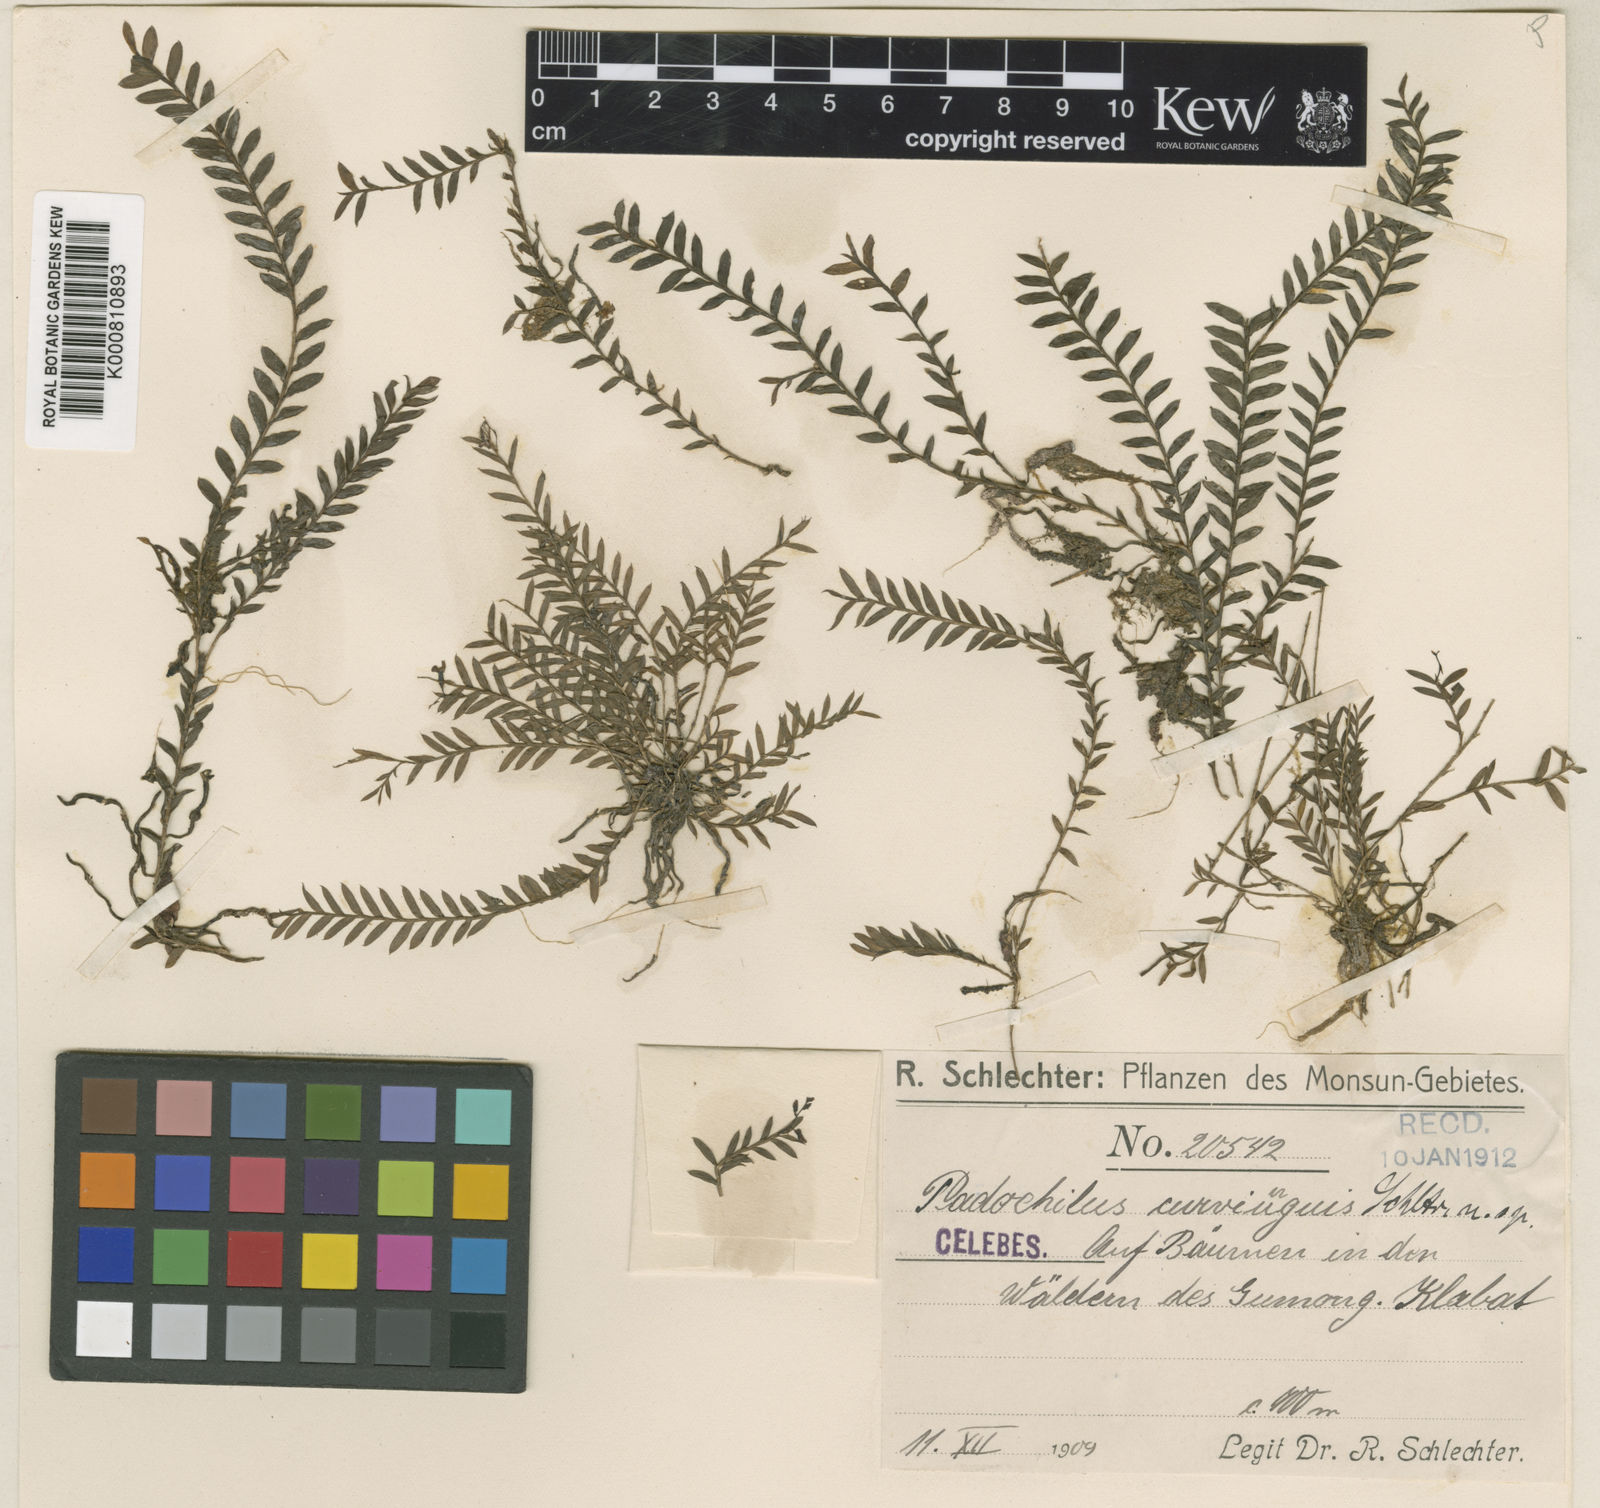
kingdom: Plantae
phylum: Tracheophyta
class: Liliopsida
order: Asparagales
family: Orchidaceae
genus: Podochilus
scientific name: Podochilus sciuroides
